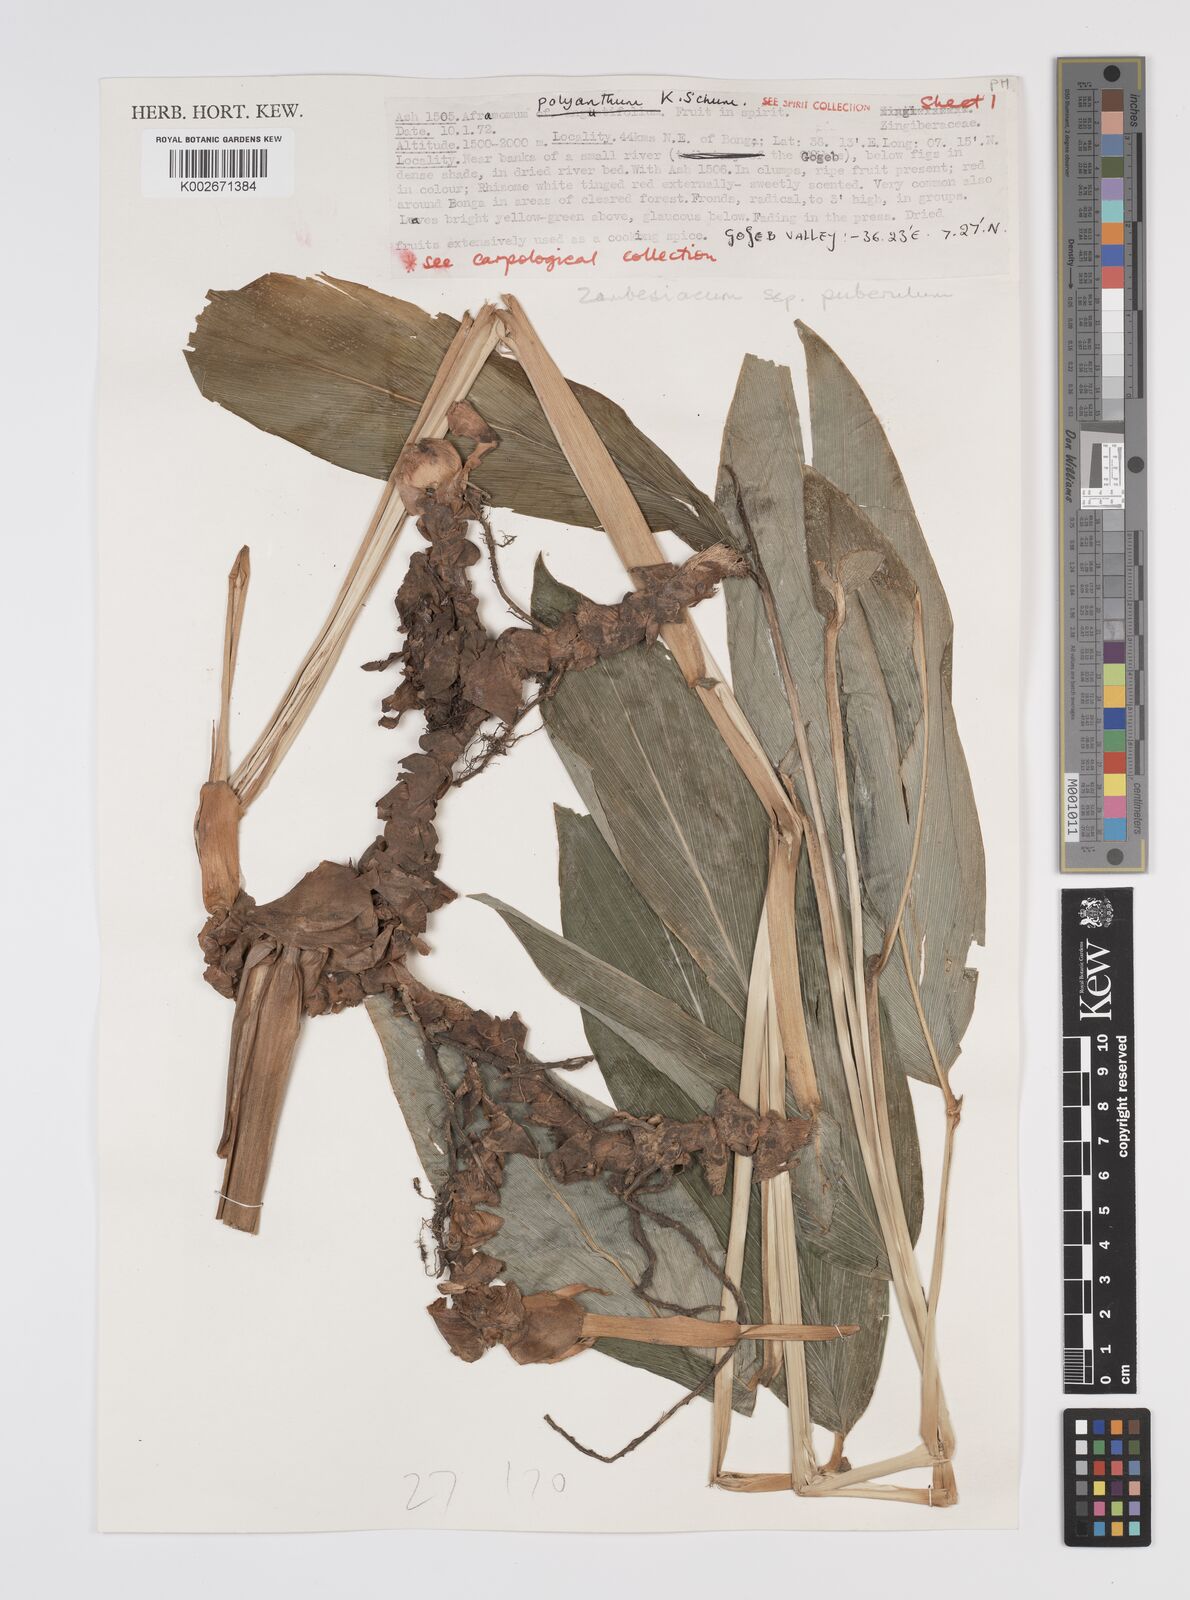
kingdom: Plantae
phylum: Tracheophyta
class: Liliopsida
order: Zingiberales
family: Zingiberaceae
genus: Aframomum
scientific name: Aframomum zambesiacum
